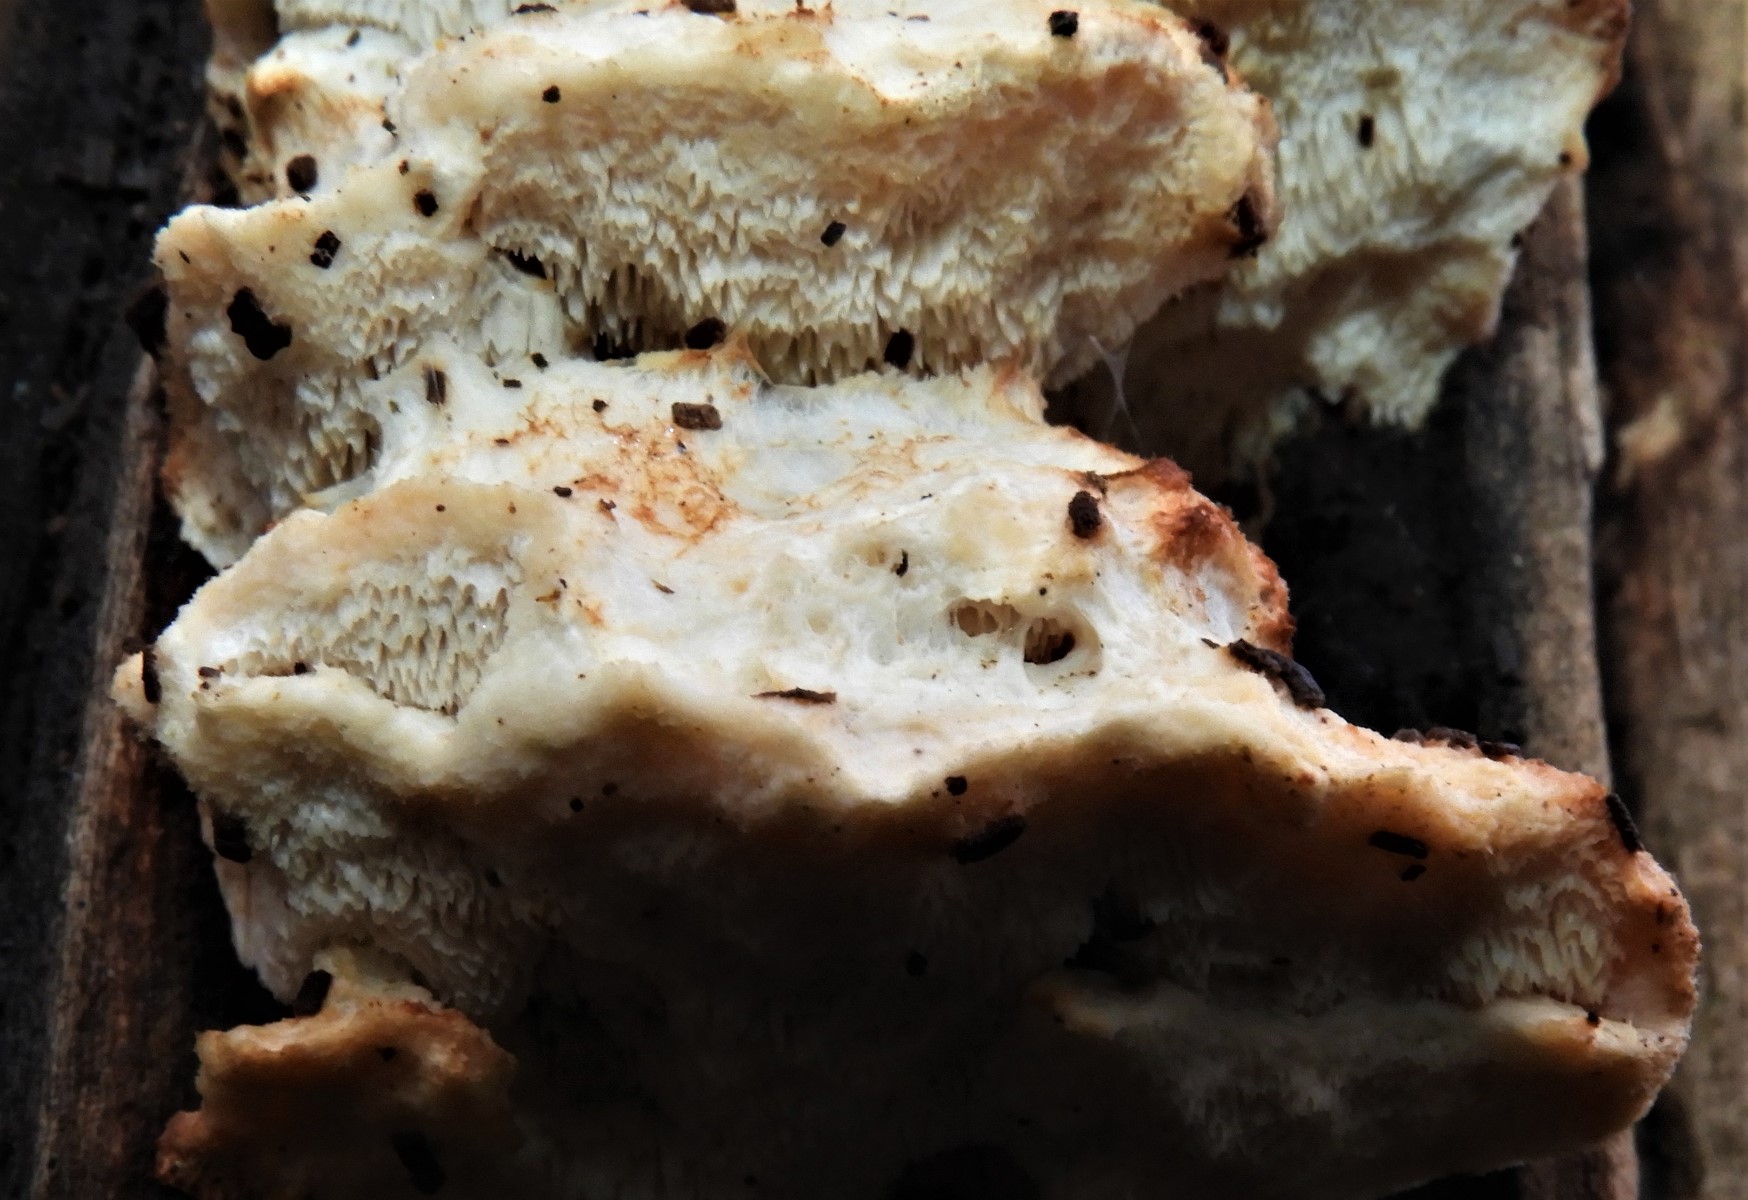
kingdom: Fungi
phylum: Basidiomycota
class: Agaricomycetes
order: Polyporales
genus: Fuscopostia
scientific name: Fuscopostia fragilis
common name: brunende kødporesvamp
